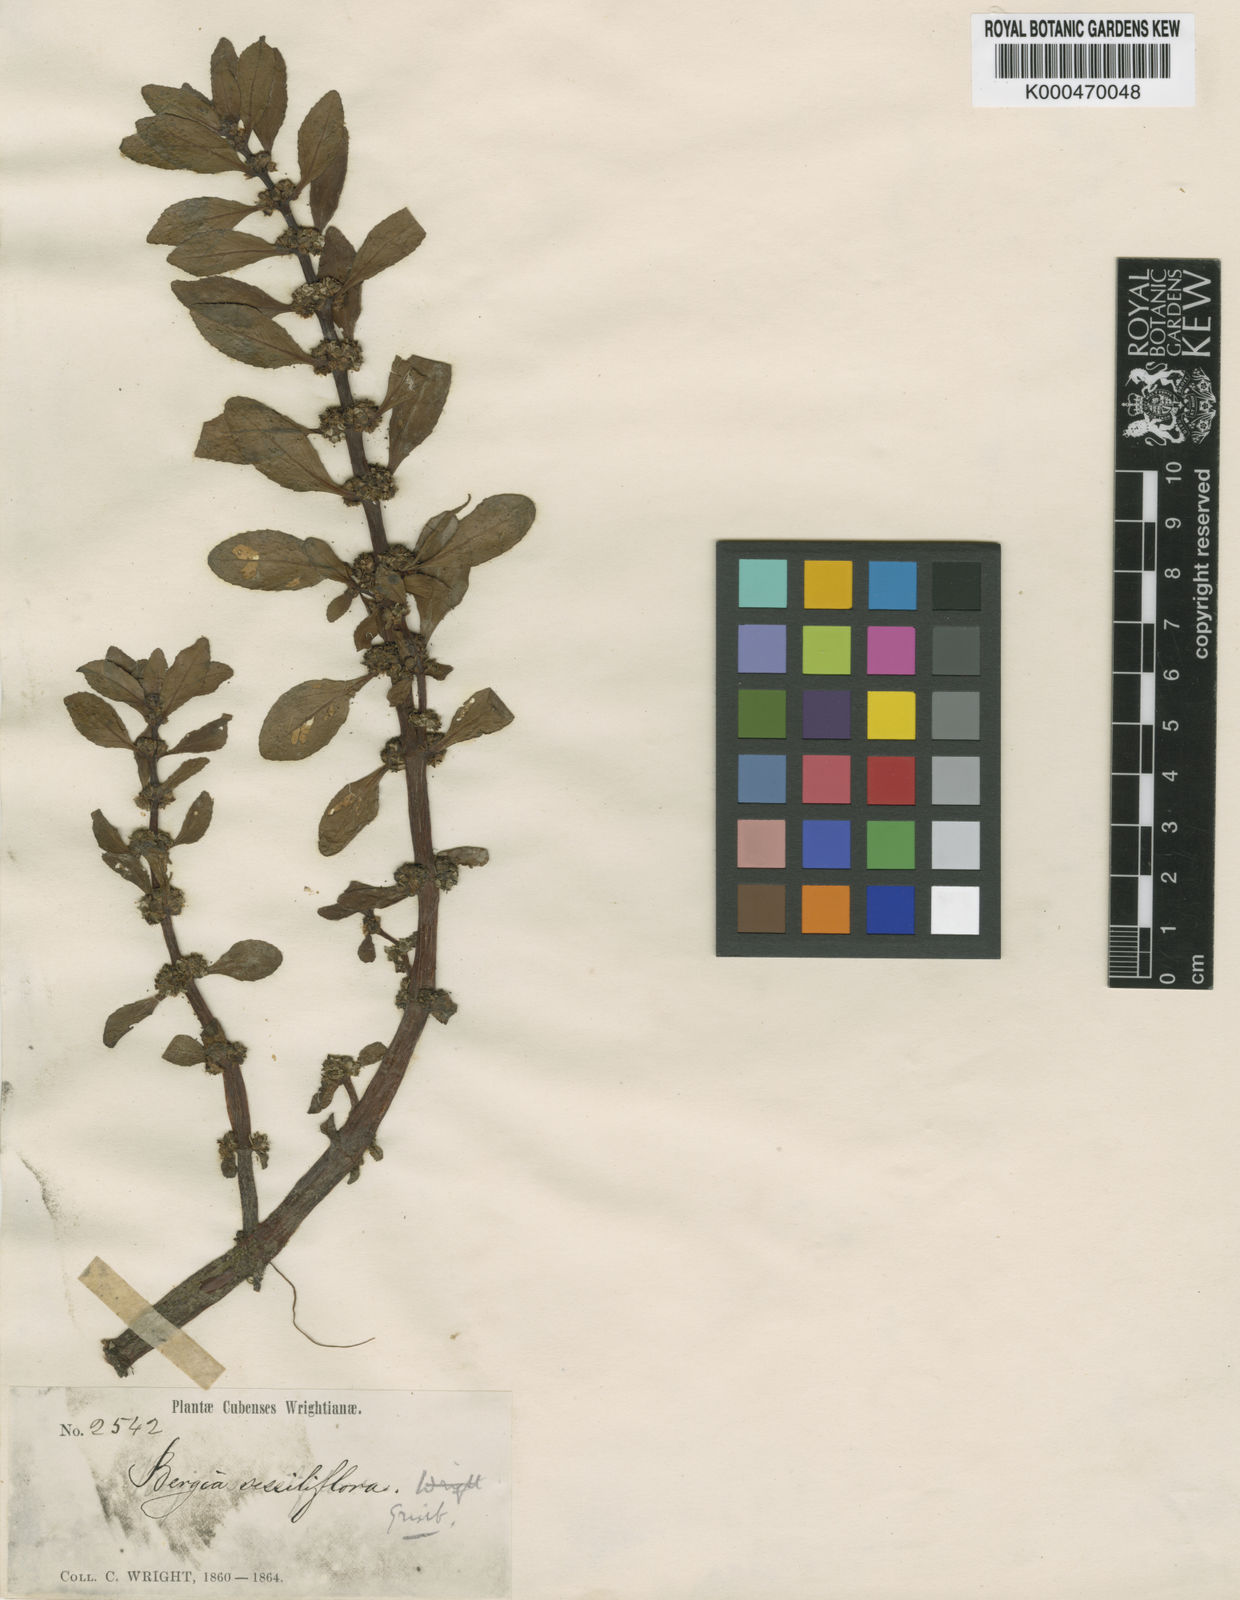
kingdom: Plantae
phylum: Tracheophyta
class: Magnoliopsida
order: Malpighiales
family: Elatinaceae
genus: Bergia
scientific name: Bergia capensis
